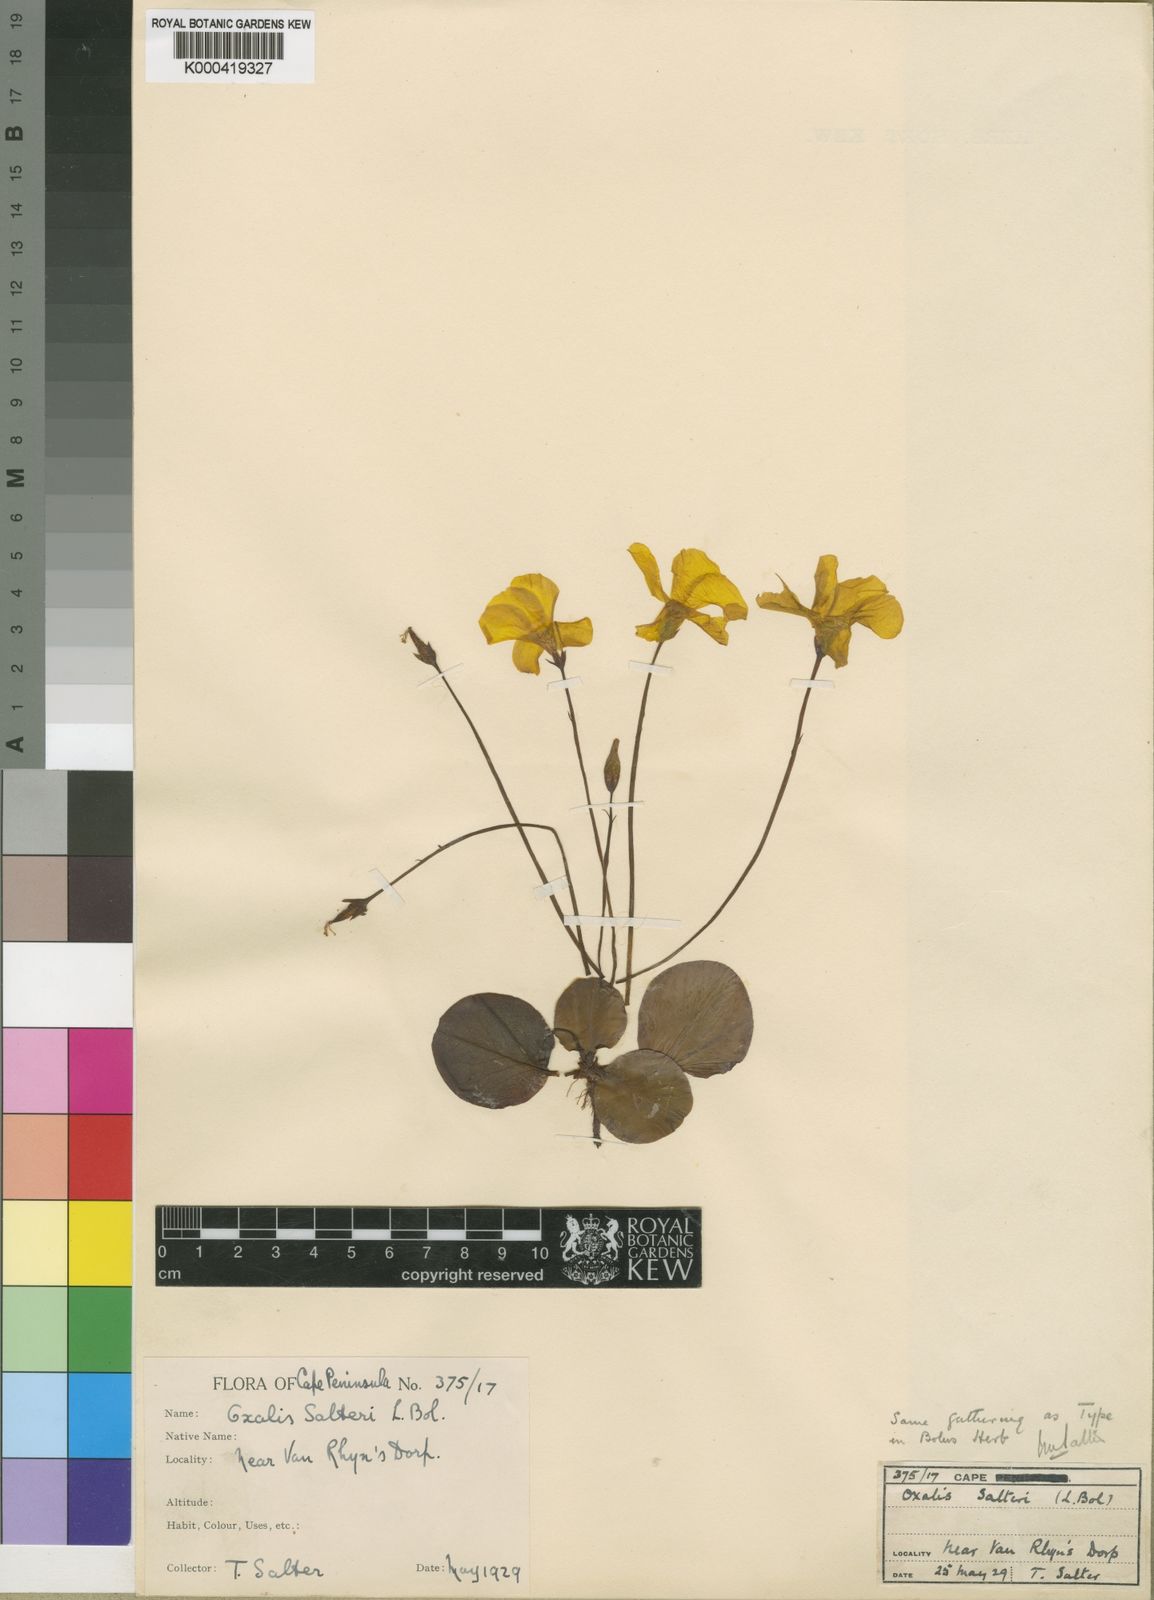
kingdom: Plantae
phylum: Tracheophyta
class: Magnoliopsida
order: Oxalidales
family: Oxalidaceae
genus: Oxalis
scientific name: Oxalis salteri
